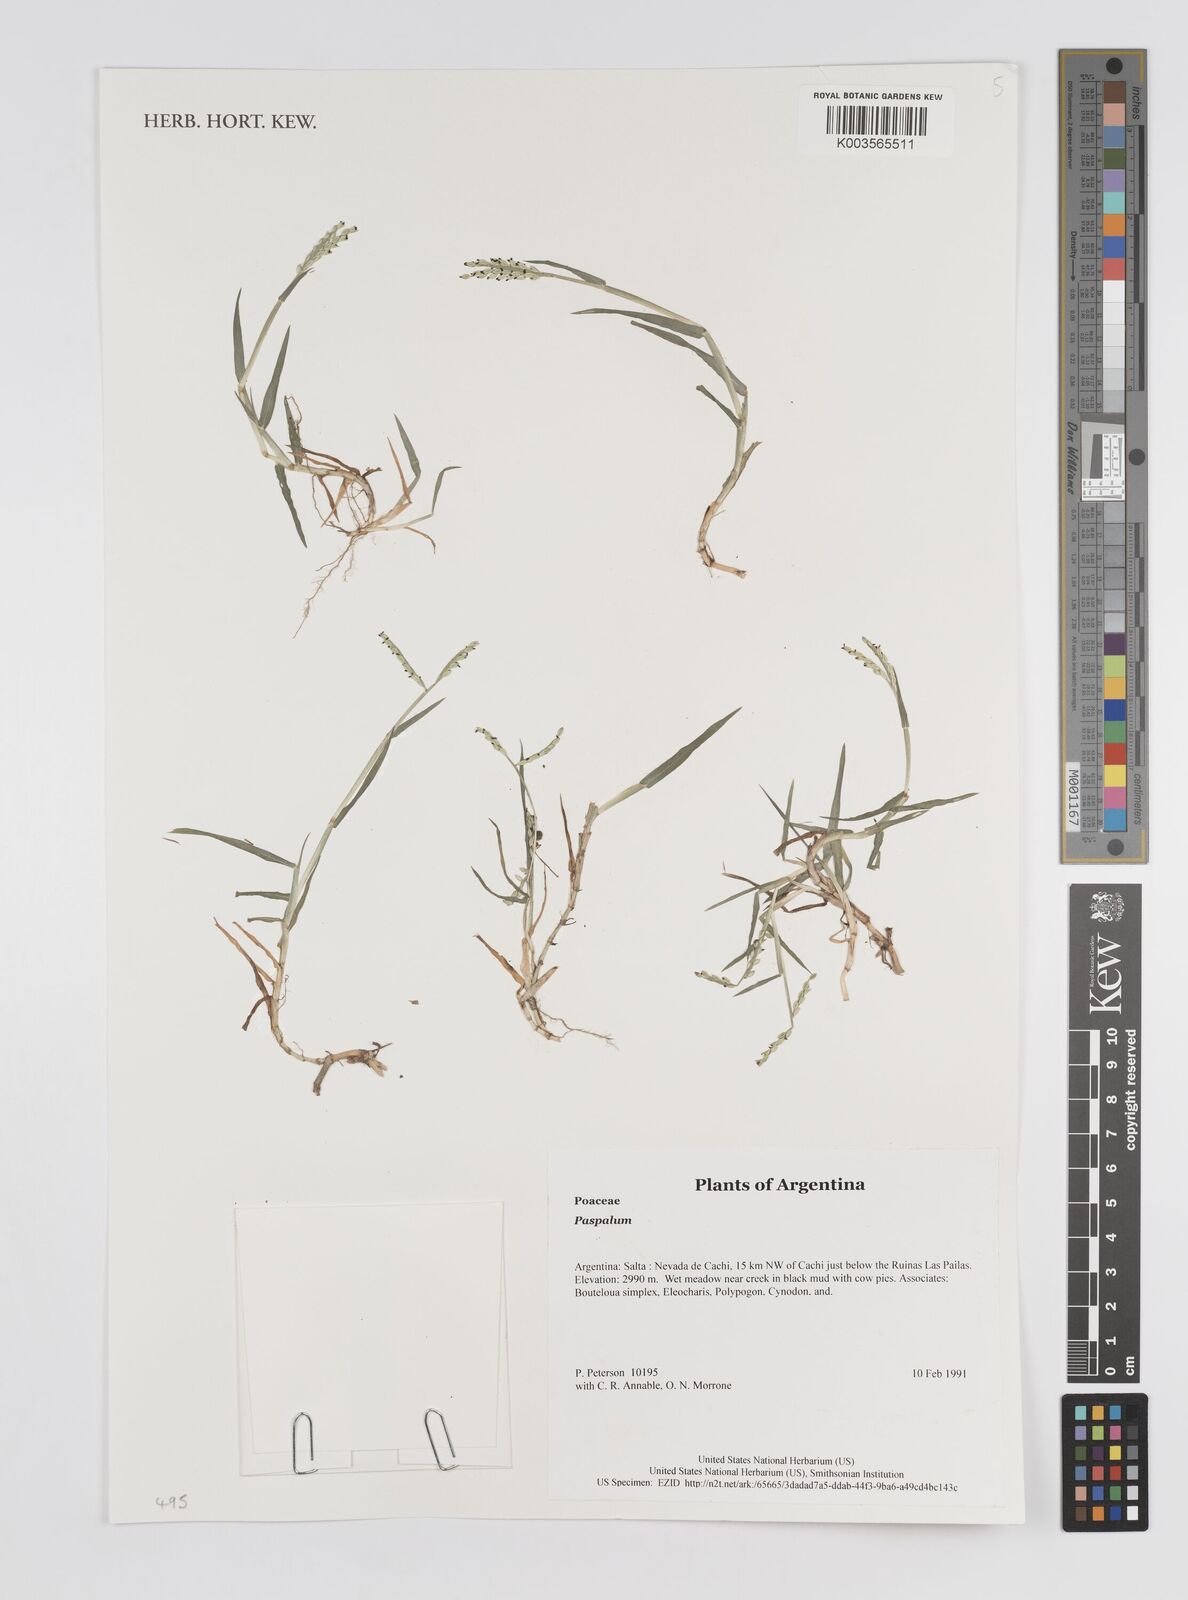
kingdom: Plantae
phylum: Tracheophyta
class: Liliopsida
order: Poales
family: Poaceae
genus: Paspalum
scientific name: Paspalum
